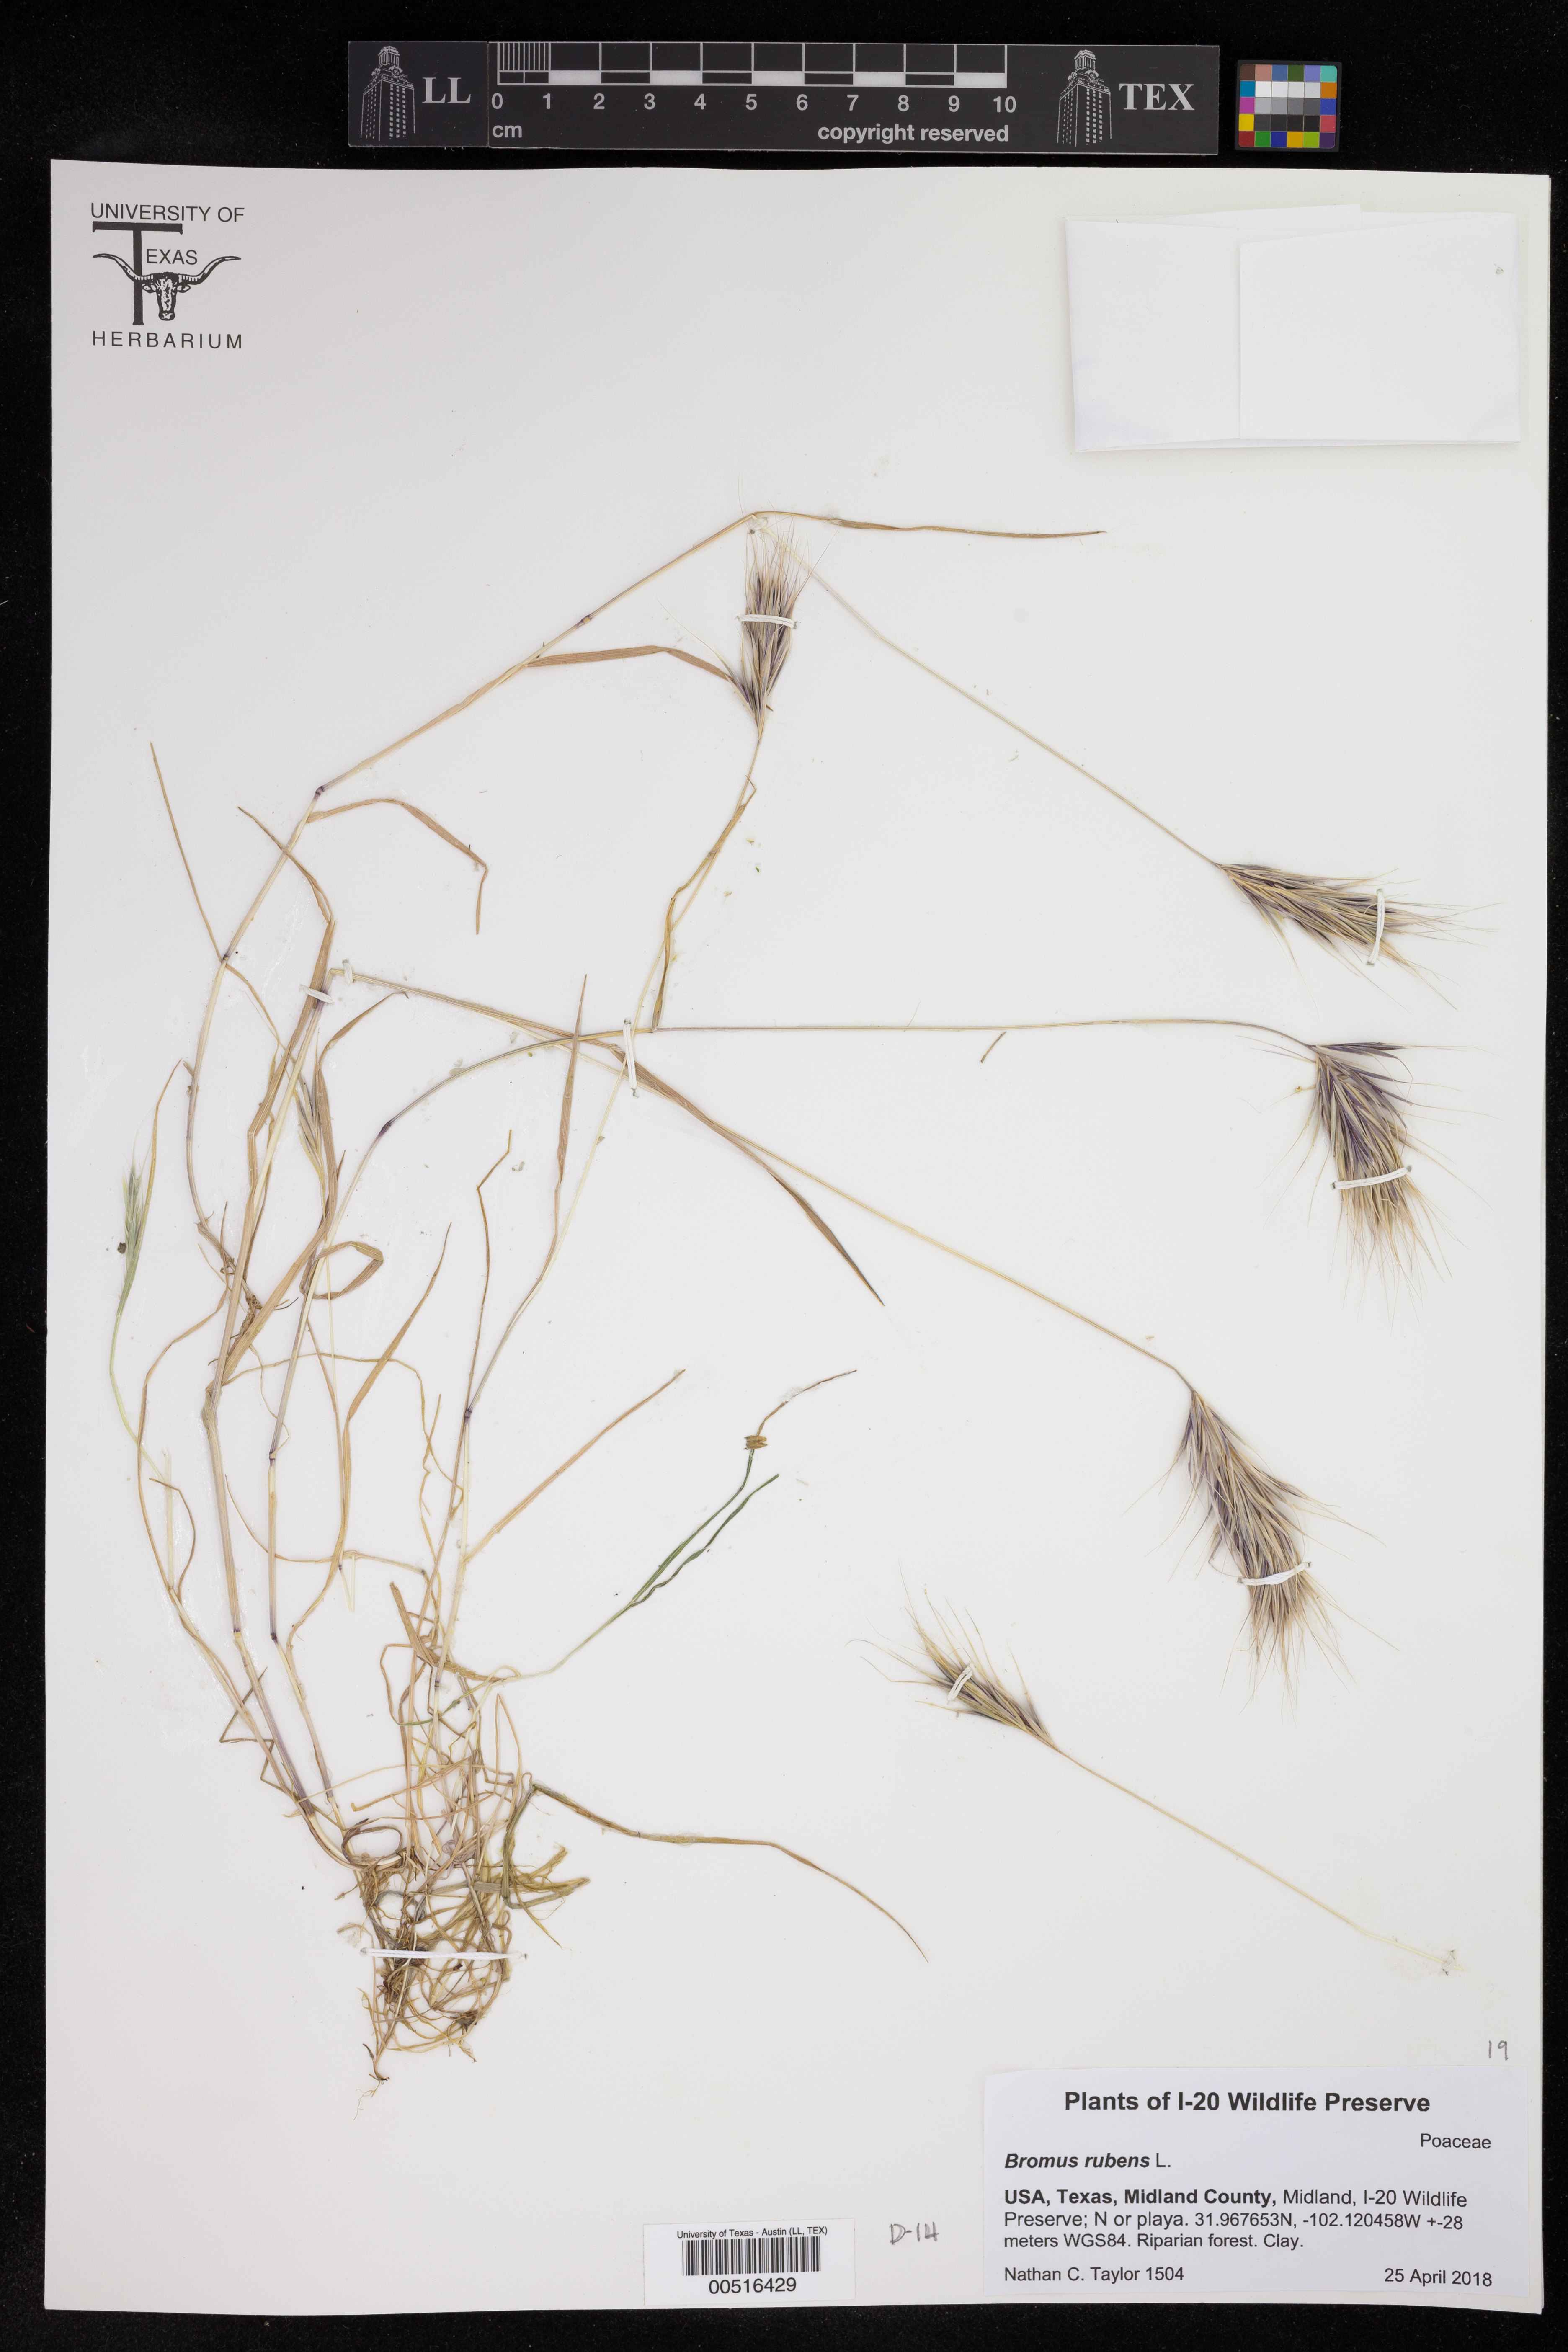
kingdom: Plantae
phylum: Tracheophyta
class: Liliopsida
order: Poales
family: Poaceae
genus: Bromus
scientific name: Bromus rubens
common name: Red brome
